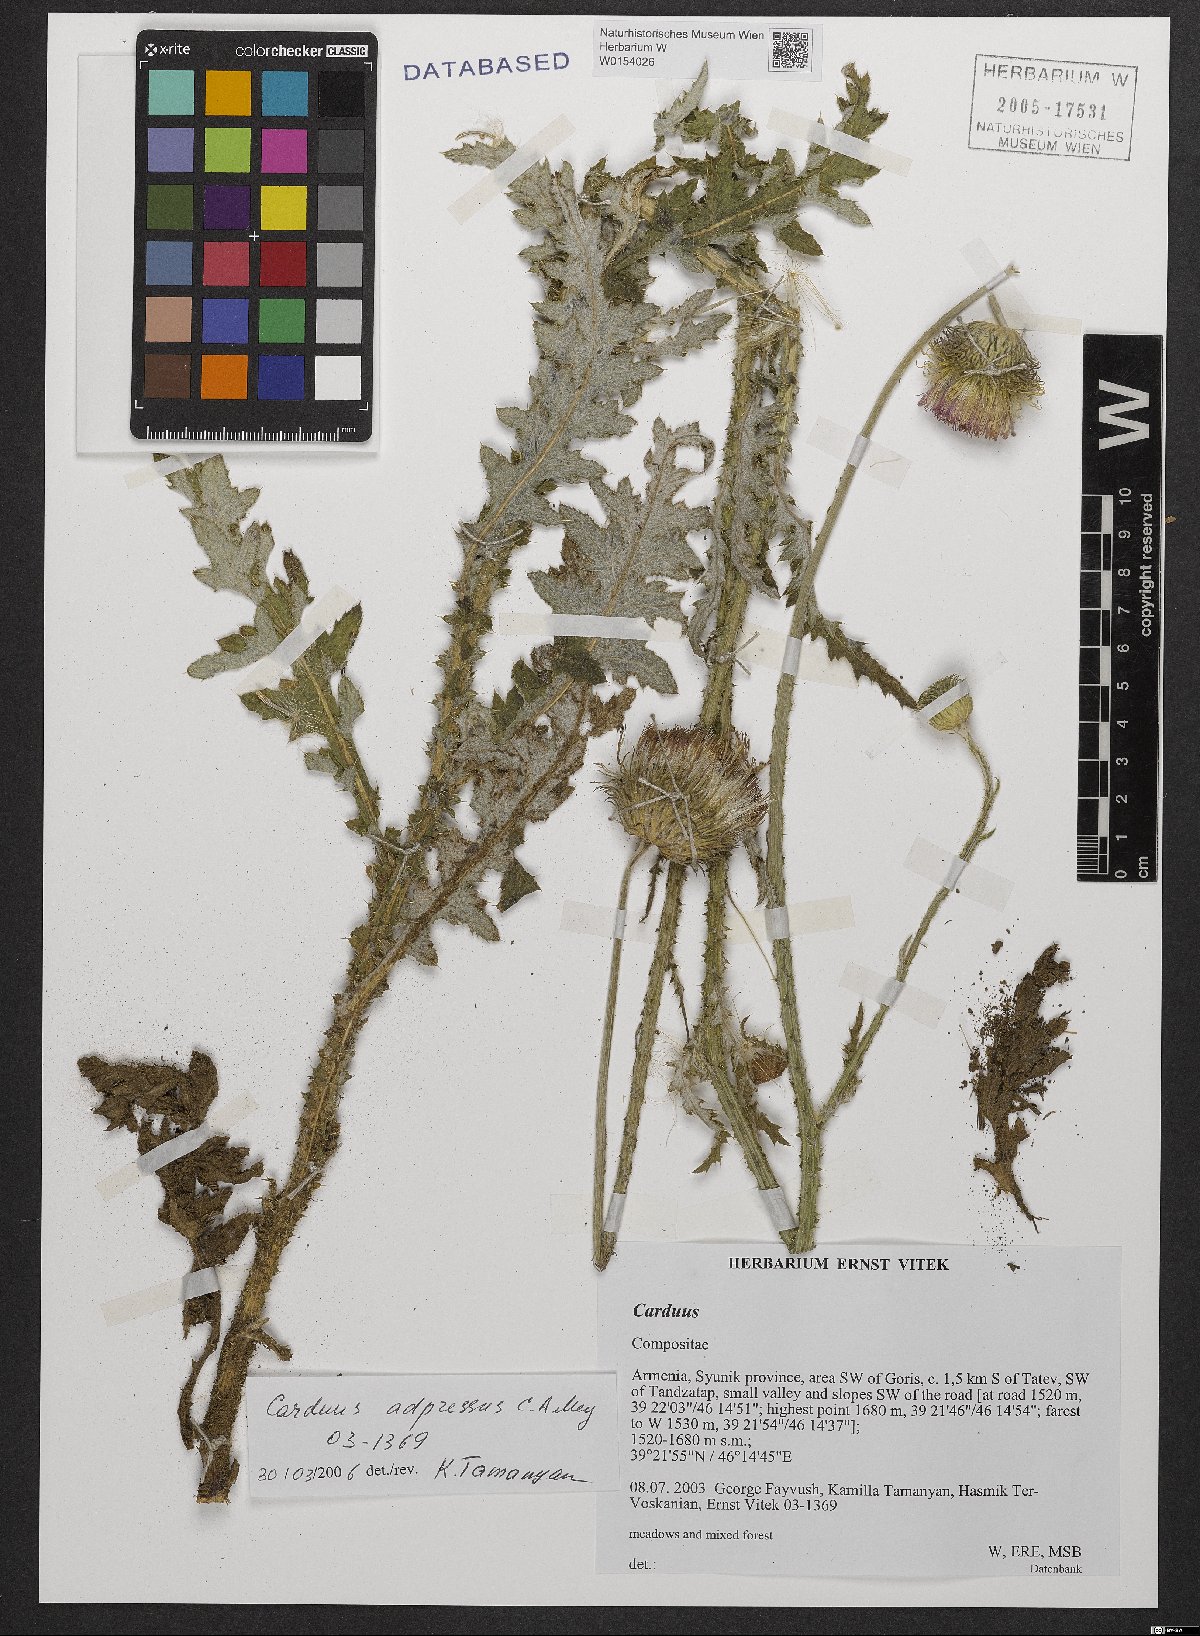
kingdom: Plantae
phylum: Tracheophyta
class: Magnoliopsida
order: Asterales
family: Asteraceae
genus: Carduus
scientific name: Carduus adpressus
